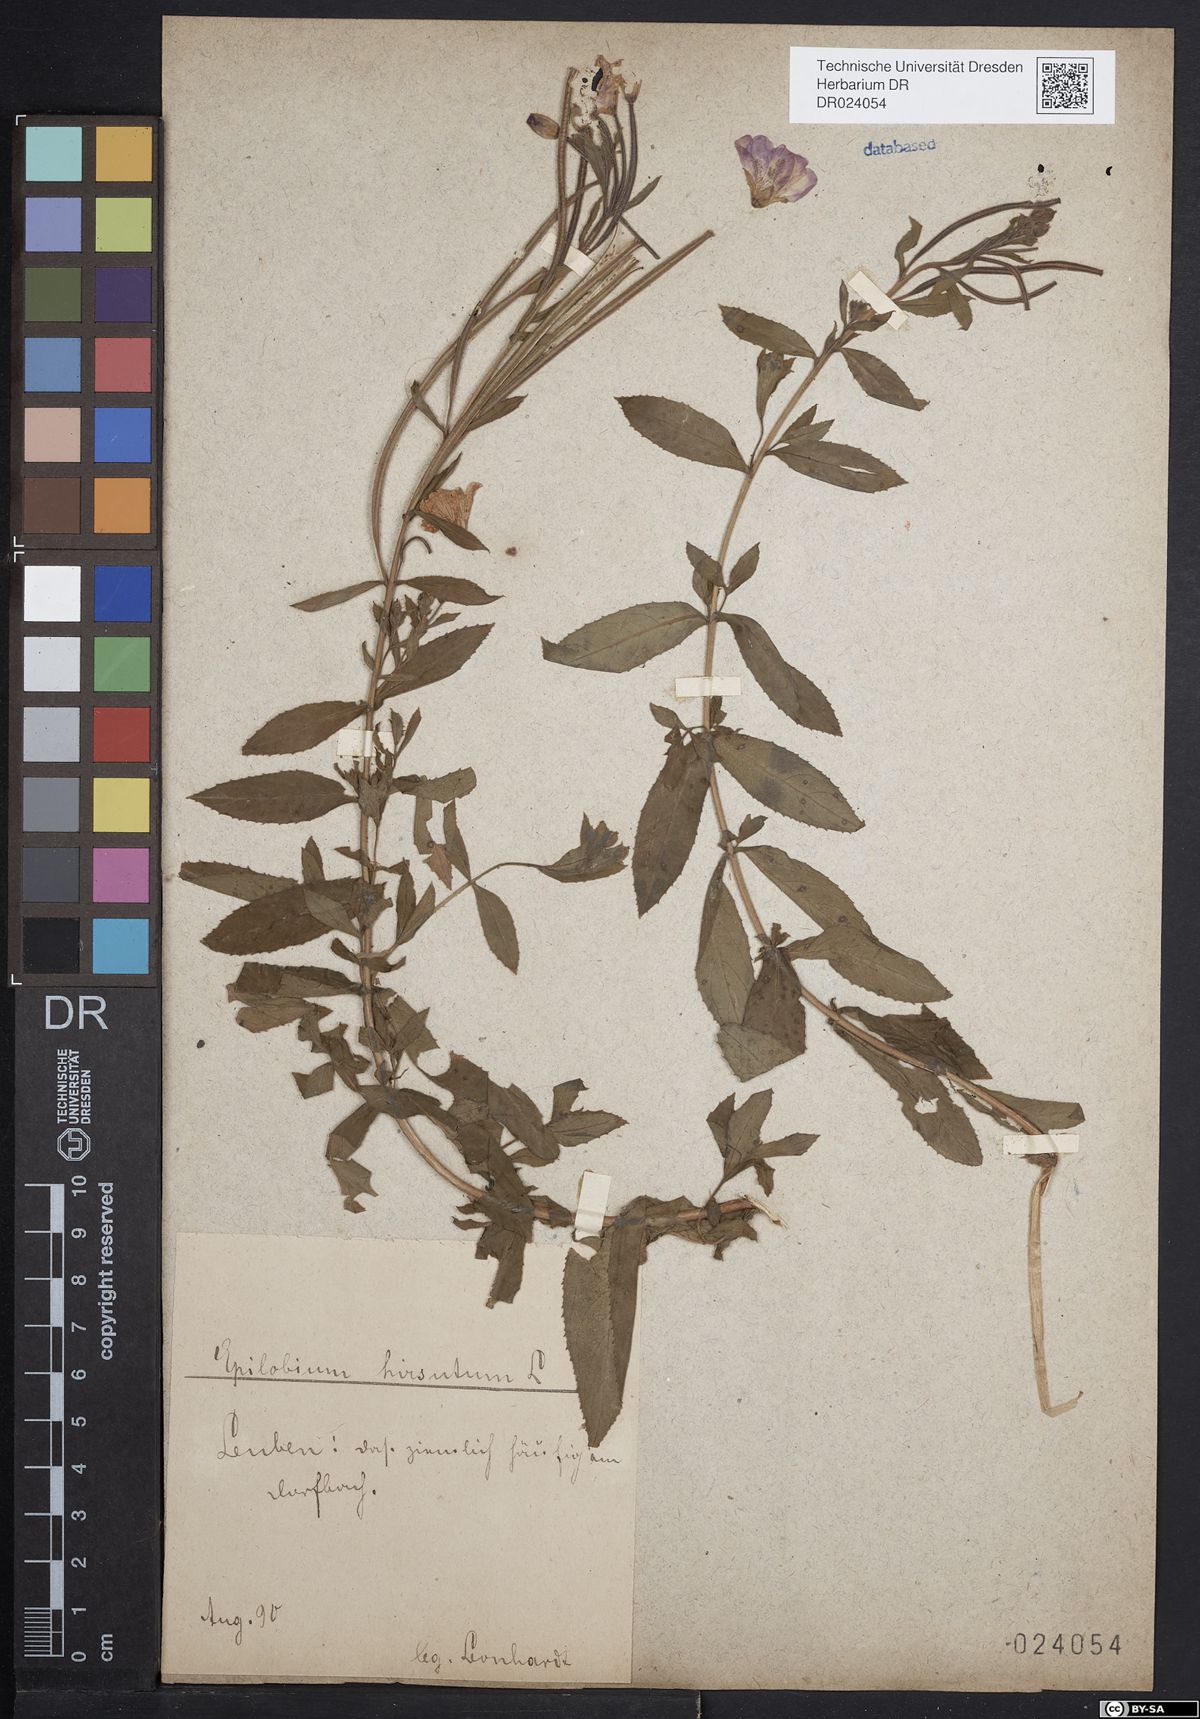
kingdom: Plantae
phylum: Tracheophyta
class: Magnoliopsida
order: Myrtales
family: Onagraceae
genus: Epilobium
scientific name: Epilobium hirsutum
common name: Great willowherb
